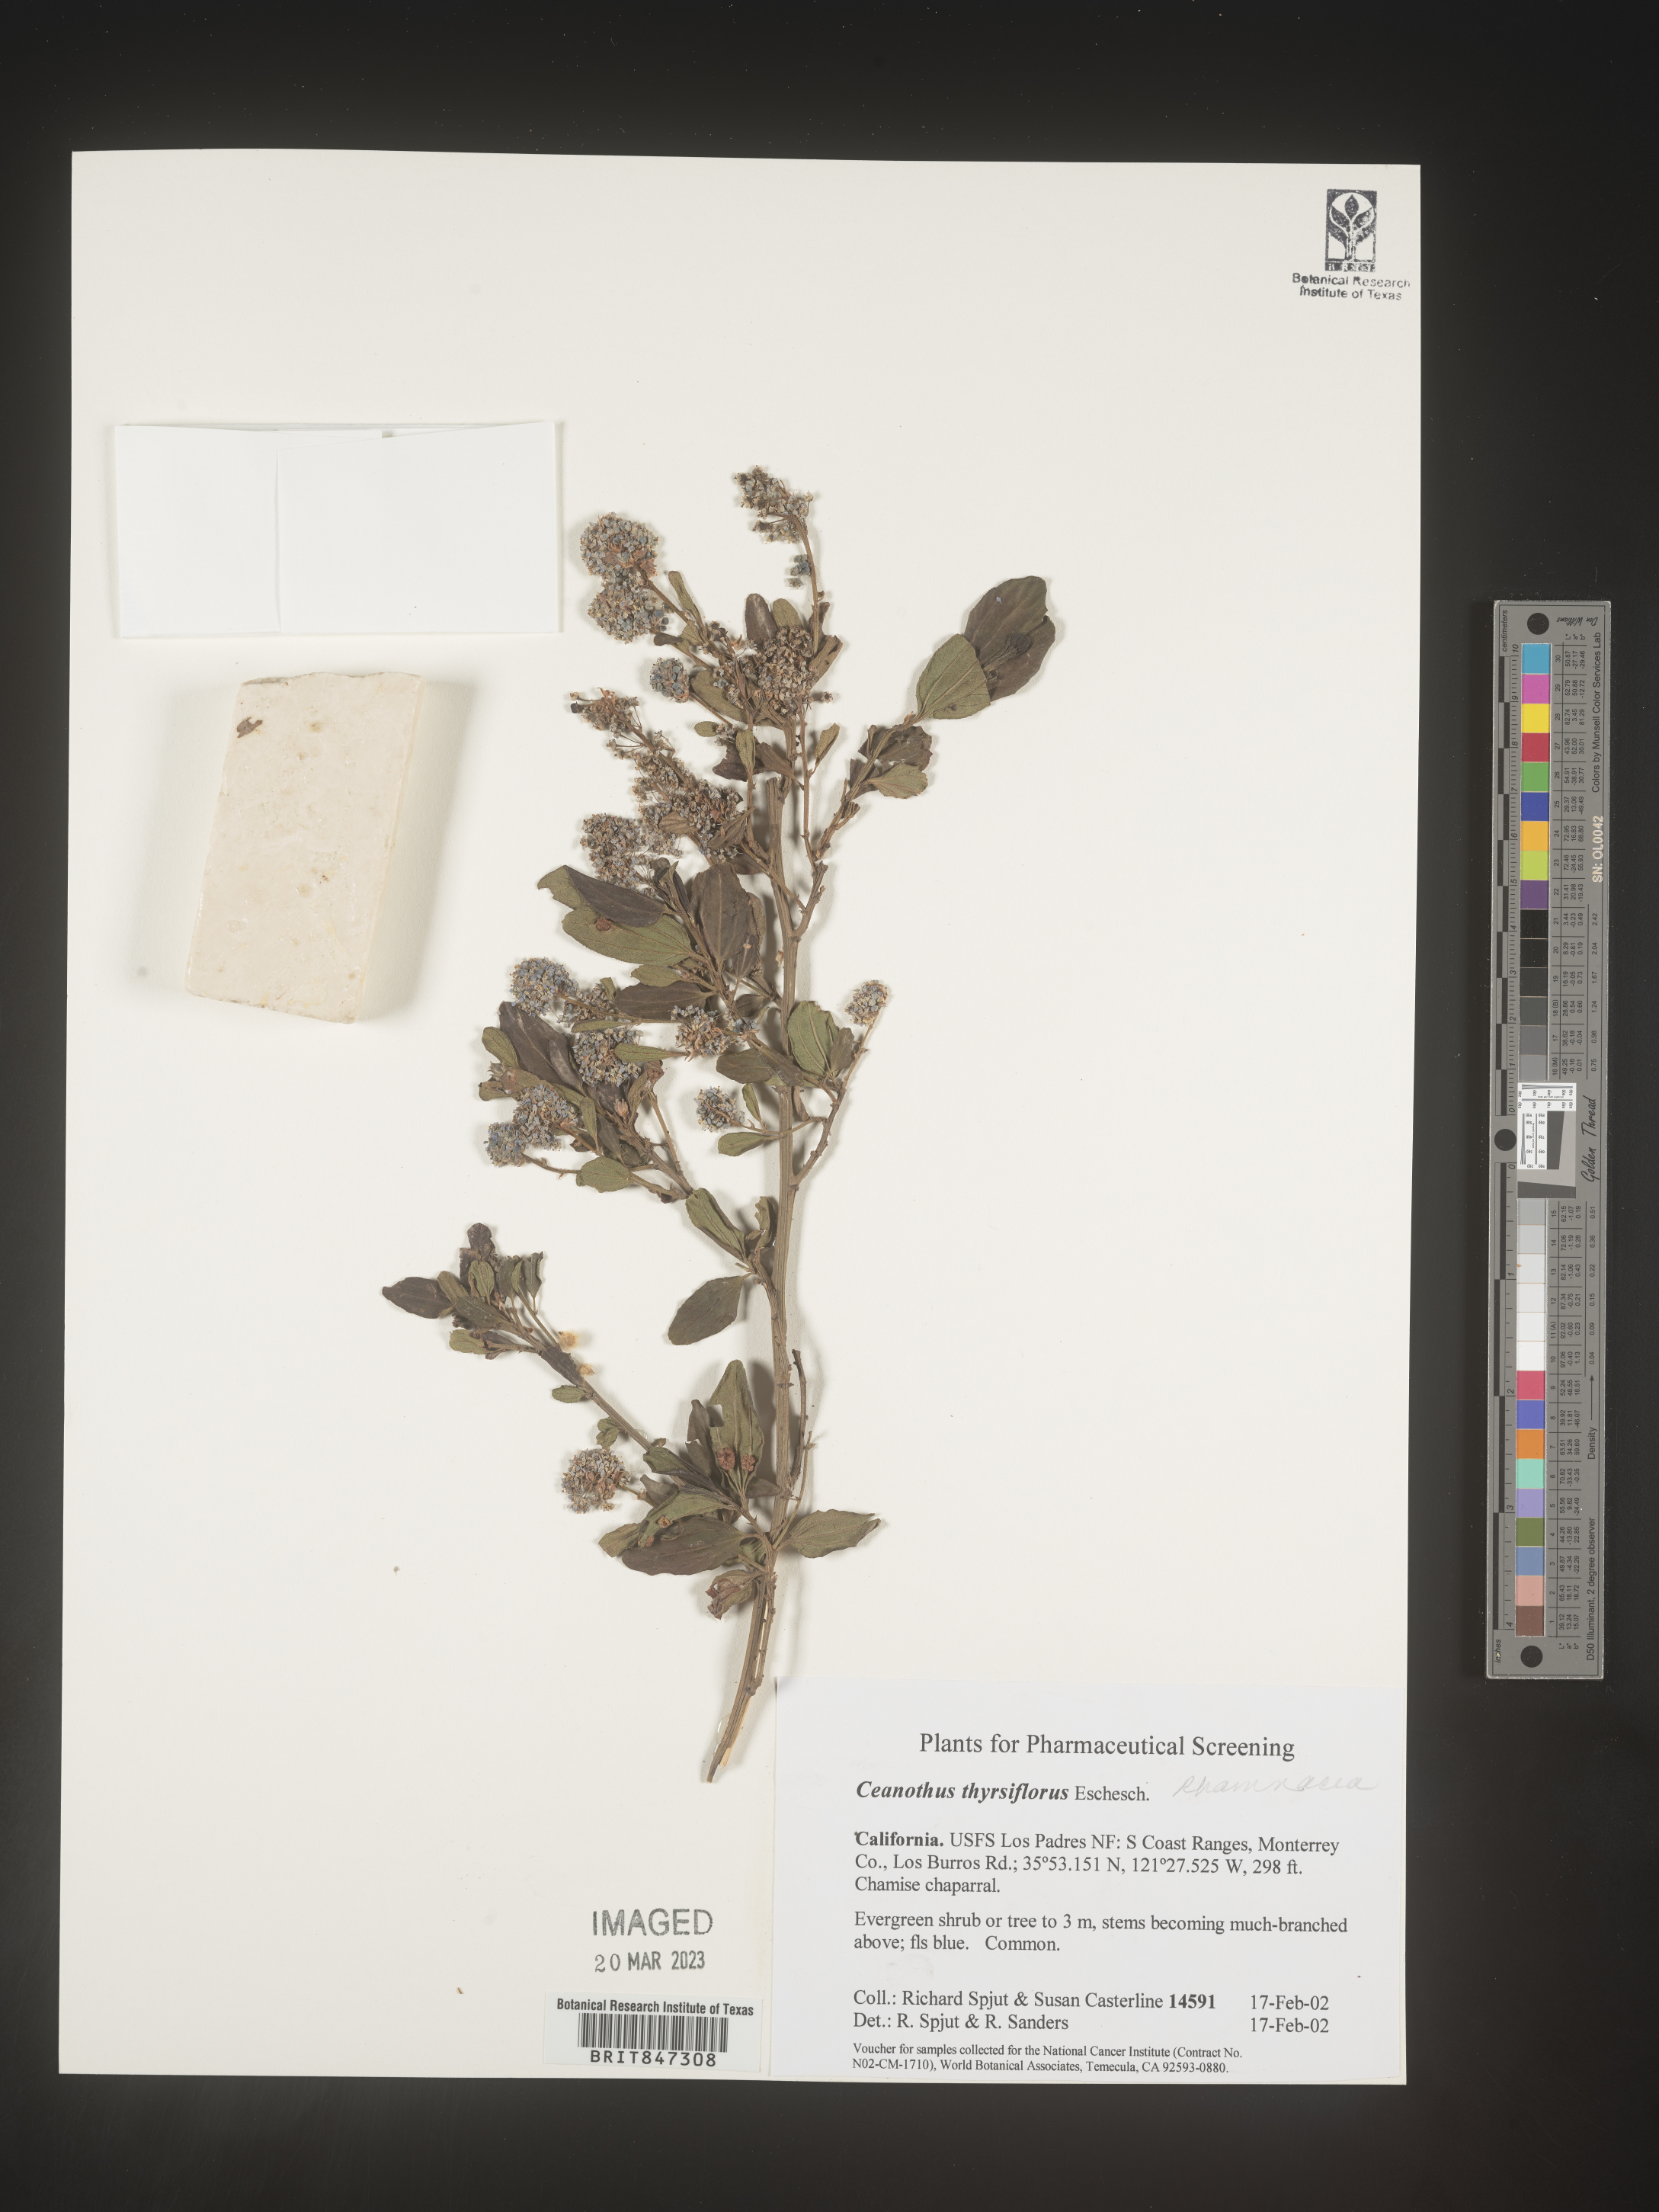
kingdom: Plantae
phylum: Tracheophyta
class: Magnoliopsida
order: Rosales
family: Rhamnaceae
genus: Ceanothus
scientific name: Ceanothus
